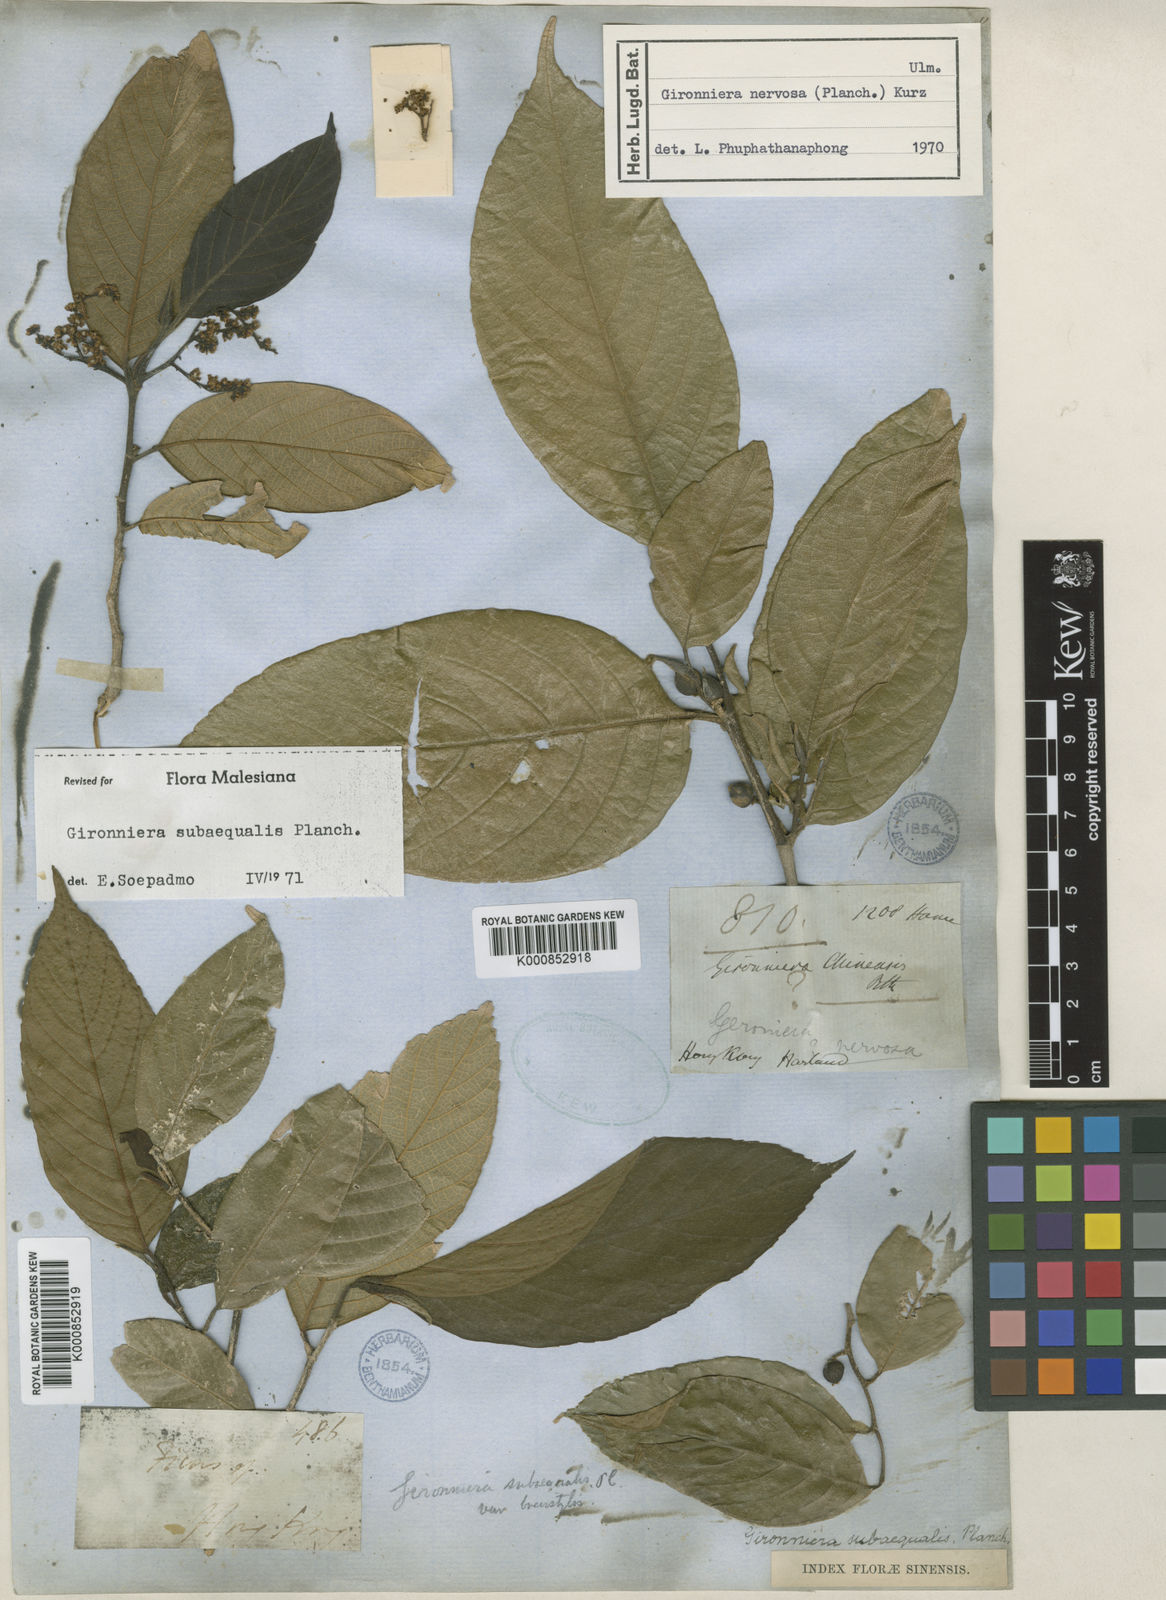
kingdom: Plantae
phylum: Tracheophyta
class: Magnoliopsida
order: Rosales
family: Cannabaceae
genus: Gironniera
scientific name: Gironniera subaequalis
